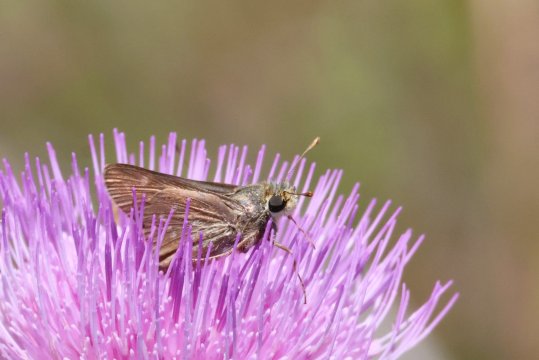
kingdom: Animalia
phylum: Arthropoda
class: Insecta
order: Lepidoptera
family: Hesperiidae
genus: Hesperia
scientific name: Hesperia attalus
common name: Dotted Skipper
